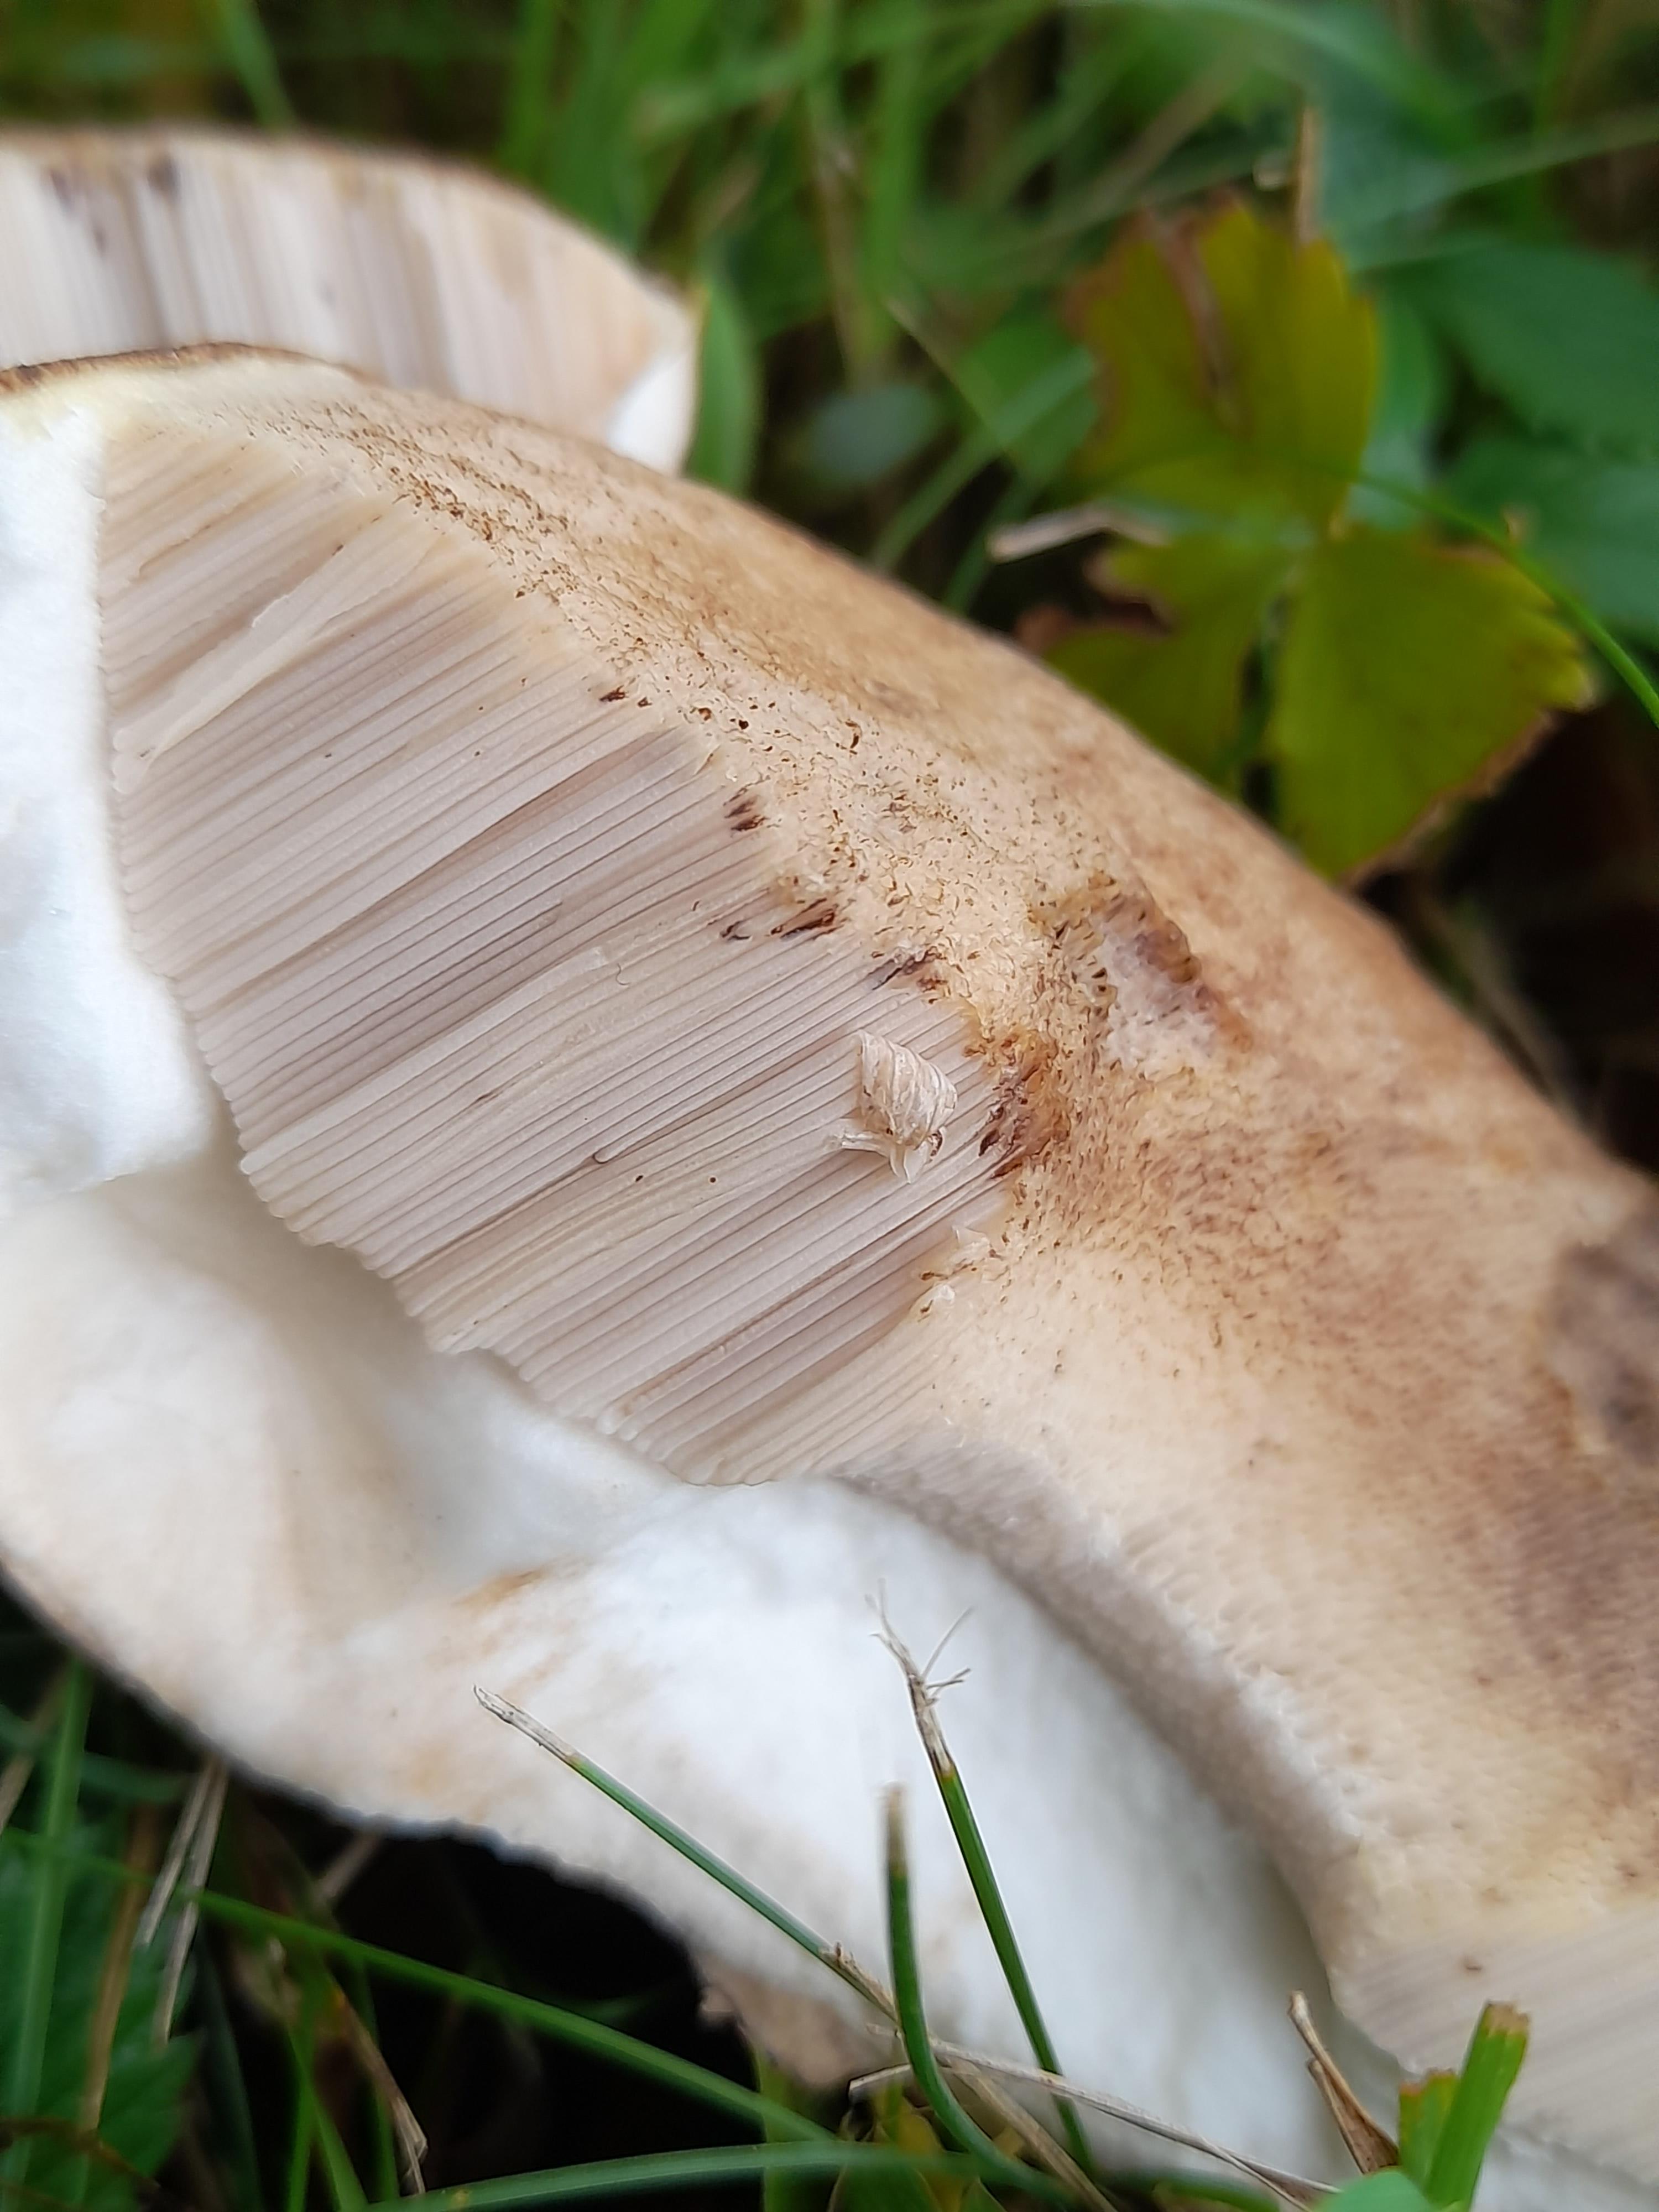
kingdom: Fungi
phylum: Basidiomycota
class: Agaricomycetes
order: Boletales
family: Boletaceae
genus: Leccinum
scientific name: Leccinum
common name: skælrørhat
